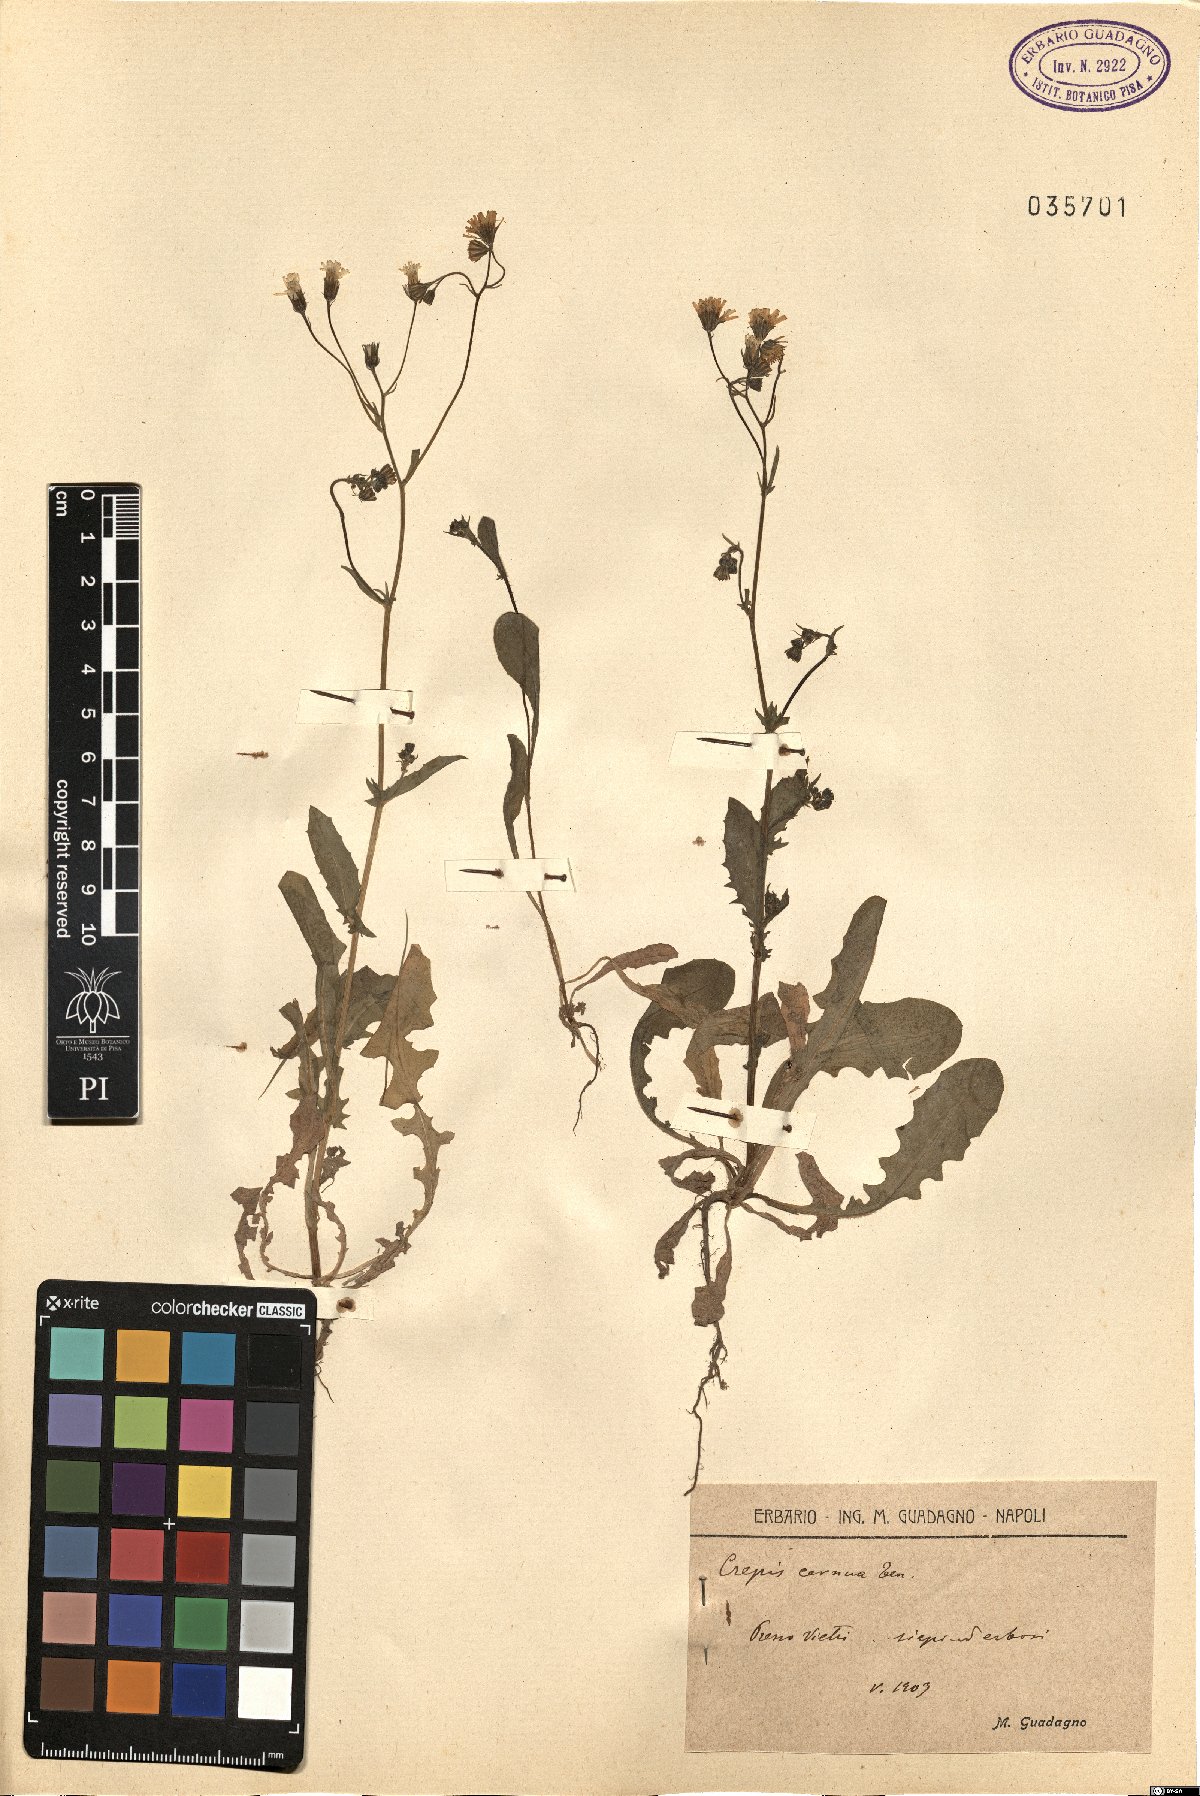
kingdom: Plantae
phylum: Tracheophyta
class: Magnoliopsida
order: Asterales
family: Asteraceae
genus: Crepis
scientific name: Crepis neglecta
